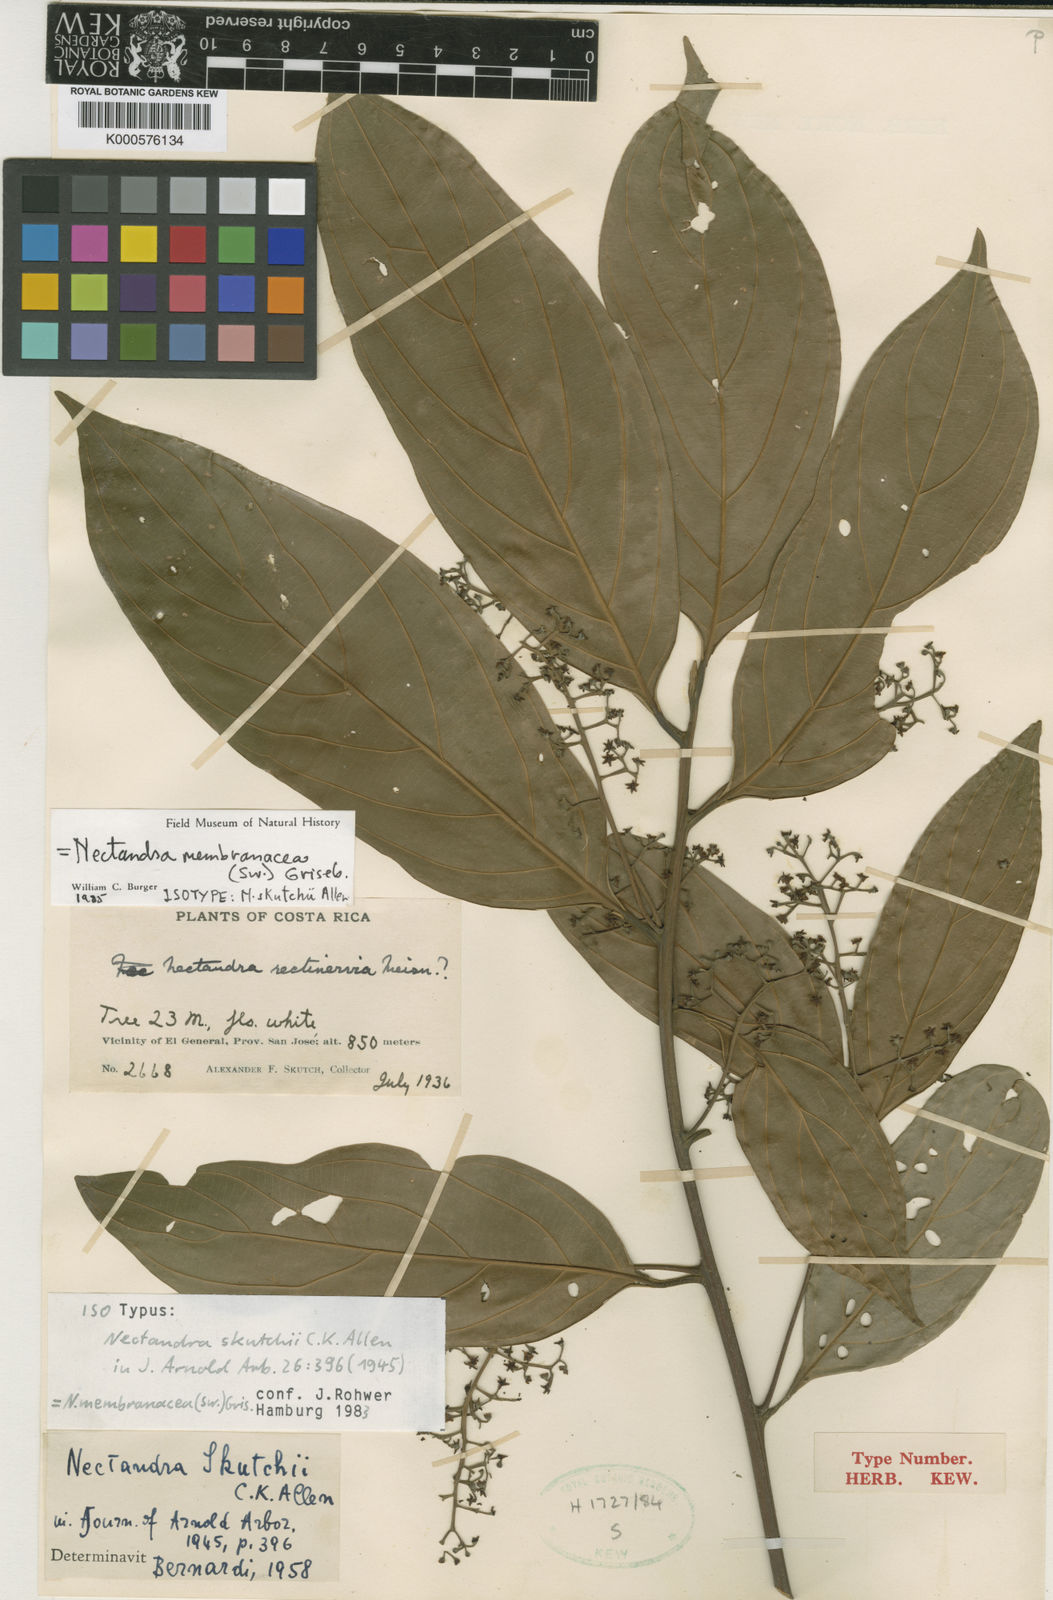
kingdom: Plantae
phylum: Tracheophyta
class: Magnoliopsida
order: Laurales
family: Lauraceae
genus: Nectandra
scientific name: Nectandra membranacea
